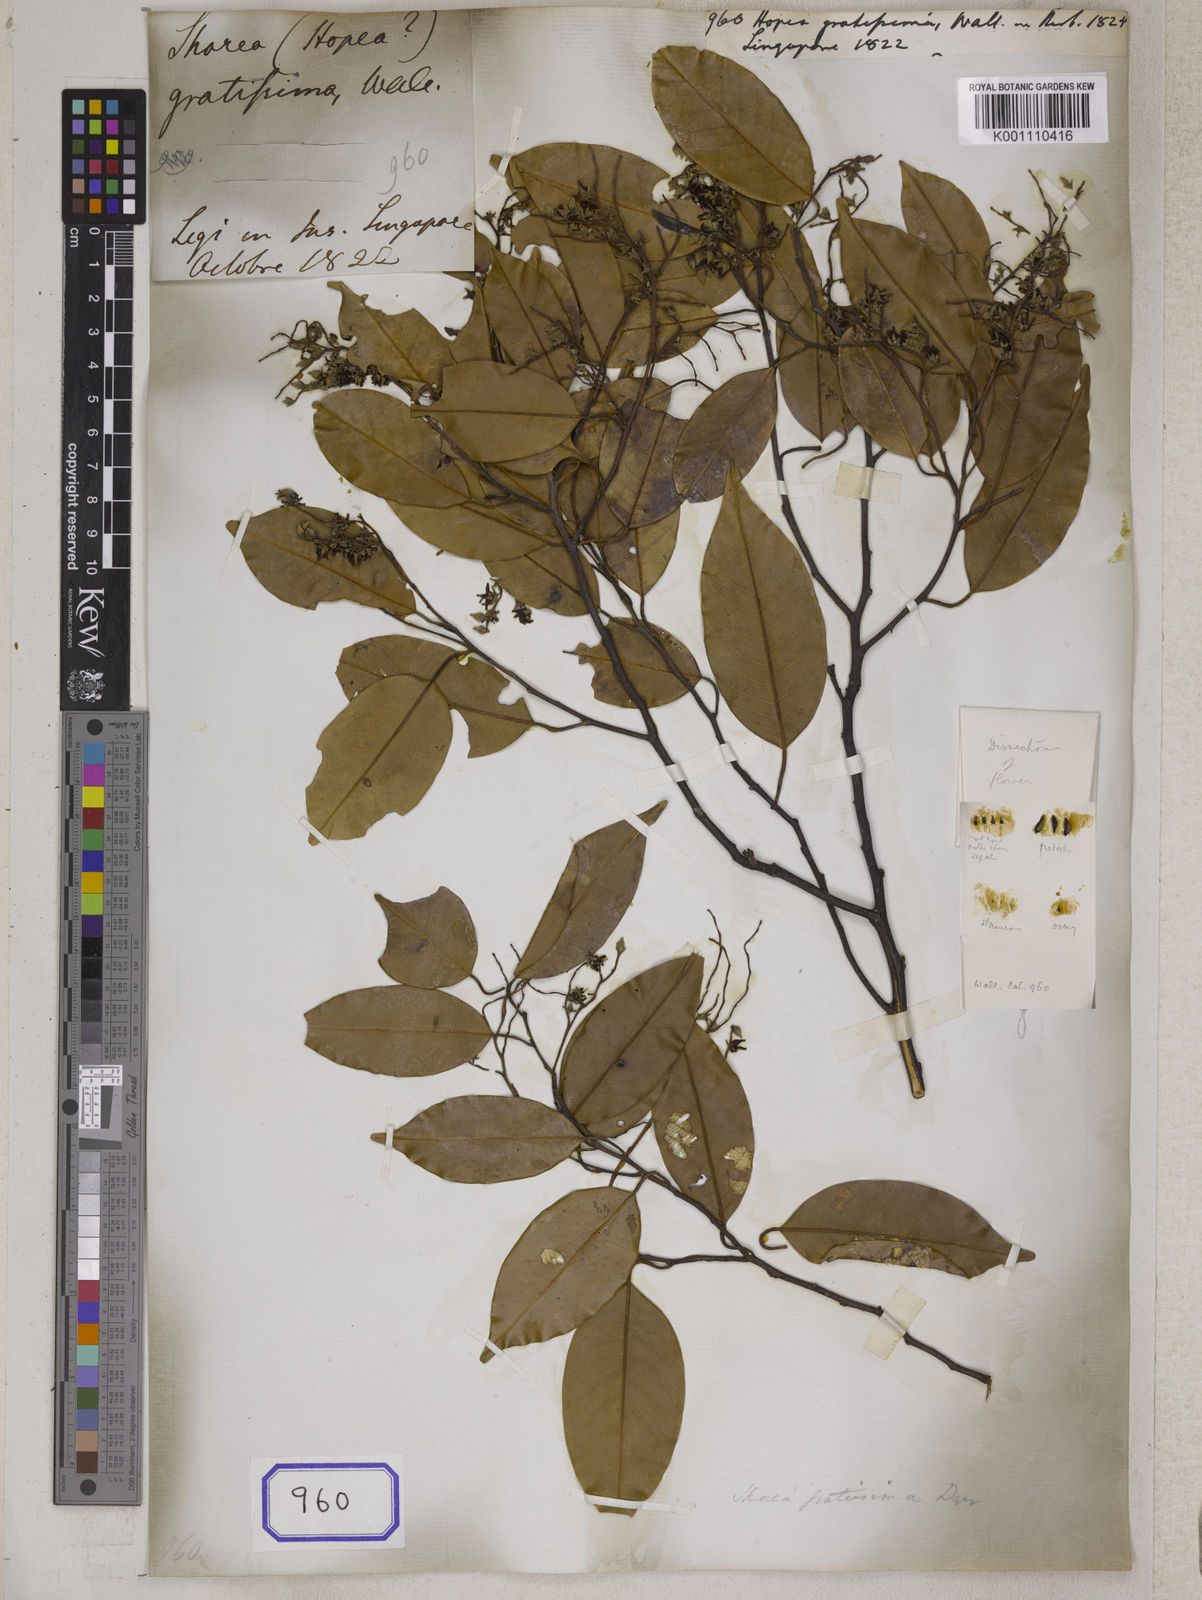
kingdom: Plantae
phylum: Tracheophyta
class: Magnoliopsida
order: Malvales
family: Dipterocarpaceae
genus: Hopea
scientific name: Hopea
